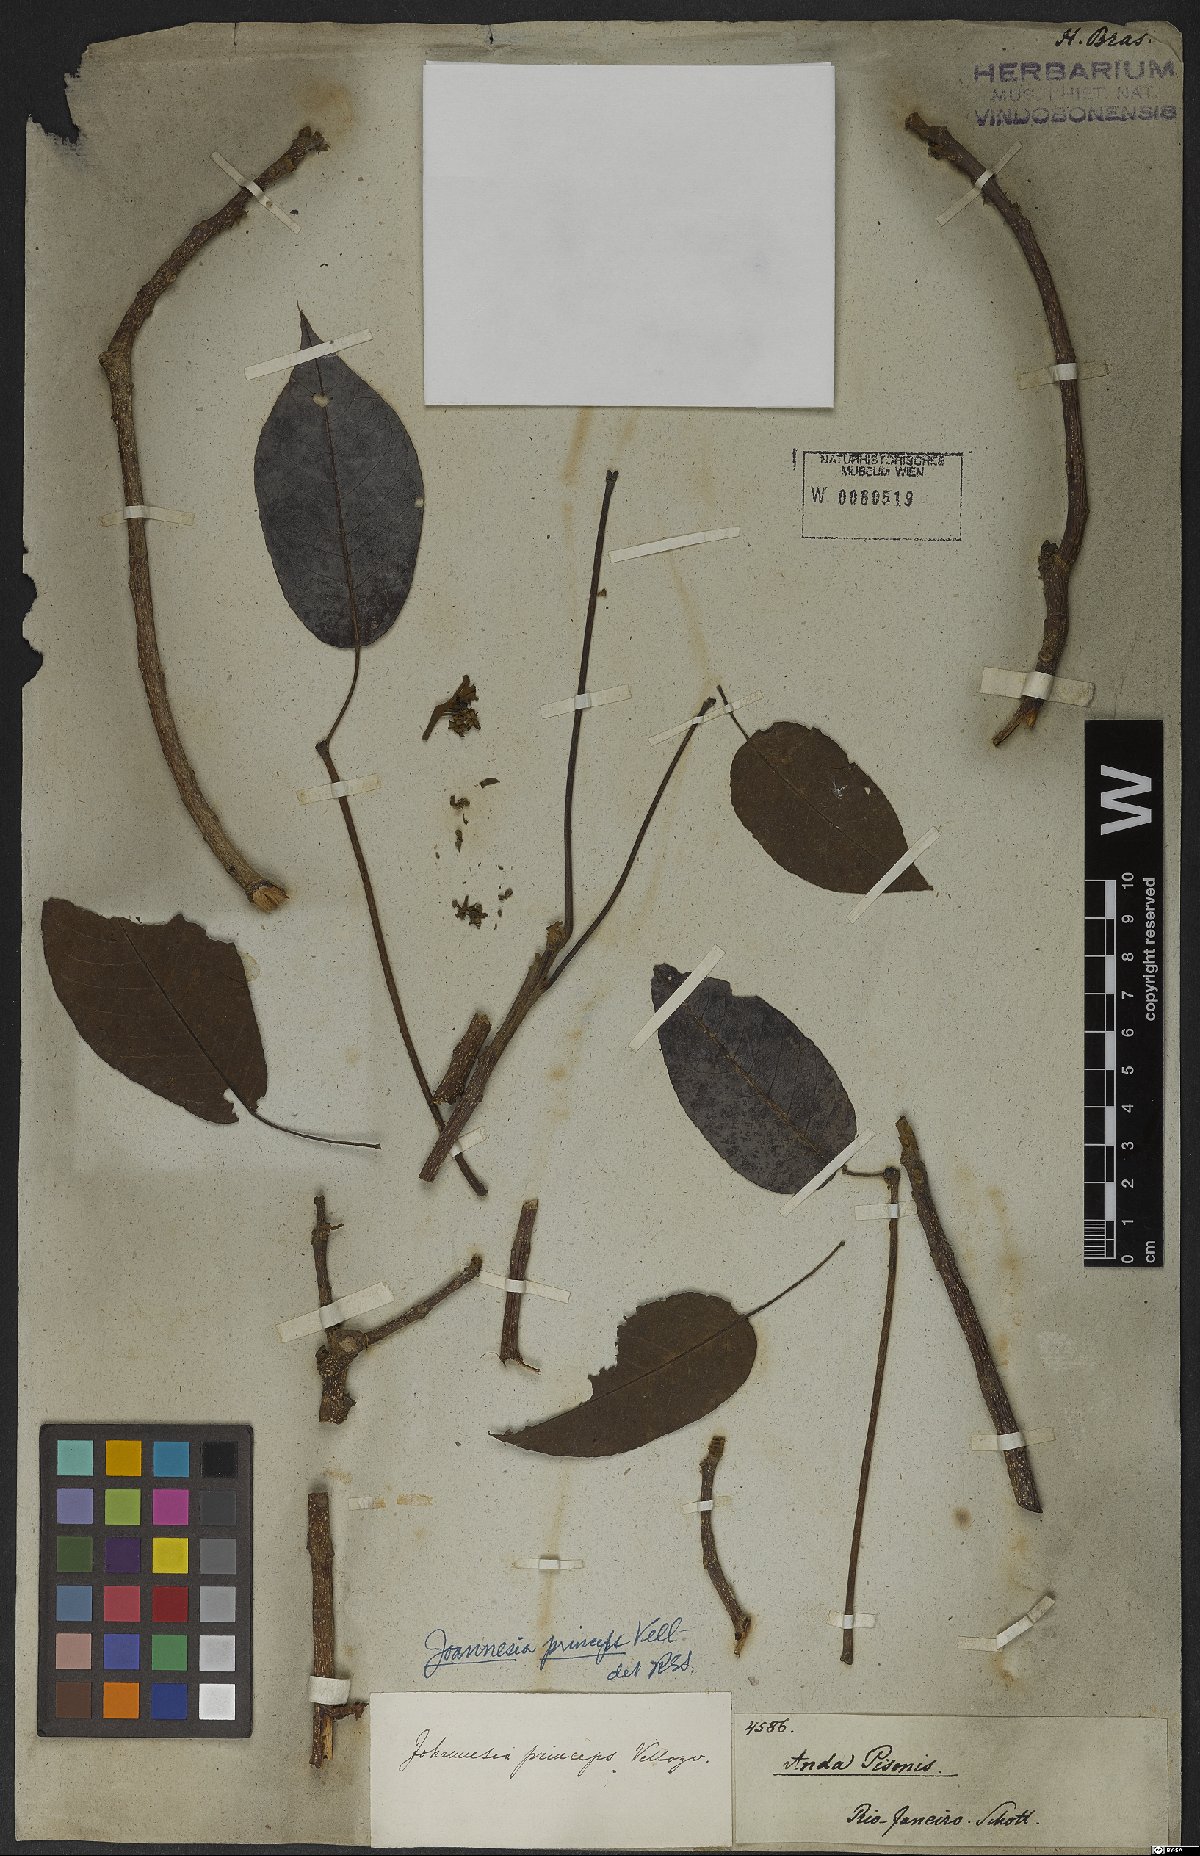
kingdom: Plantae
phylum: Tracheophyta
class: Magnoliopsida
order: Malpighiales
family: Euphorbiaceae
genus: Joannesia
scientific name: Joannesia princeps
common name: Arara nut-tree
